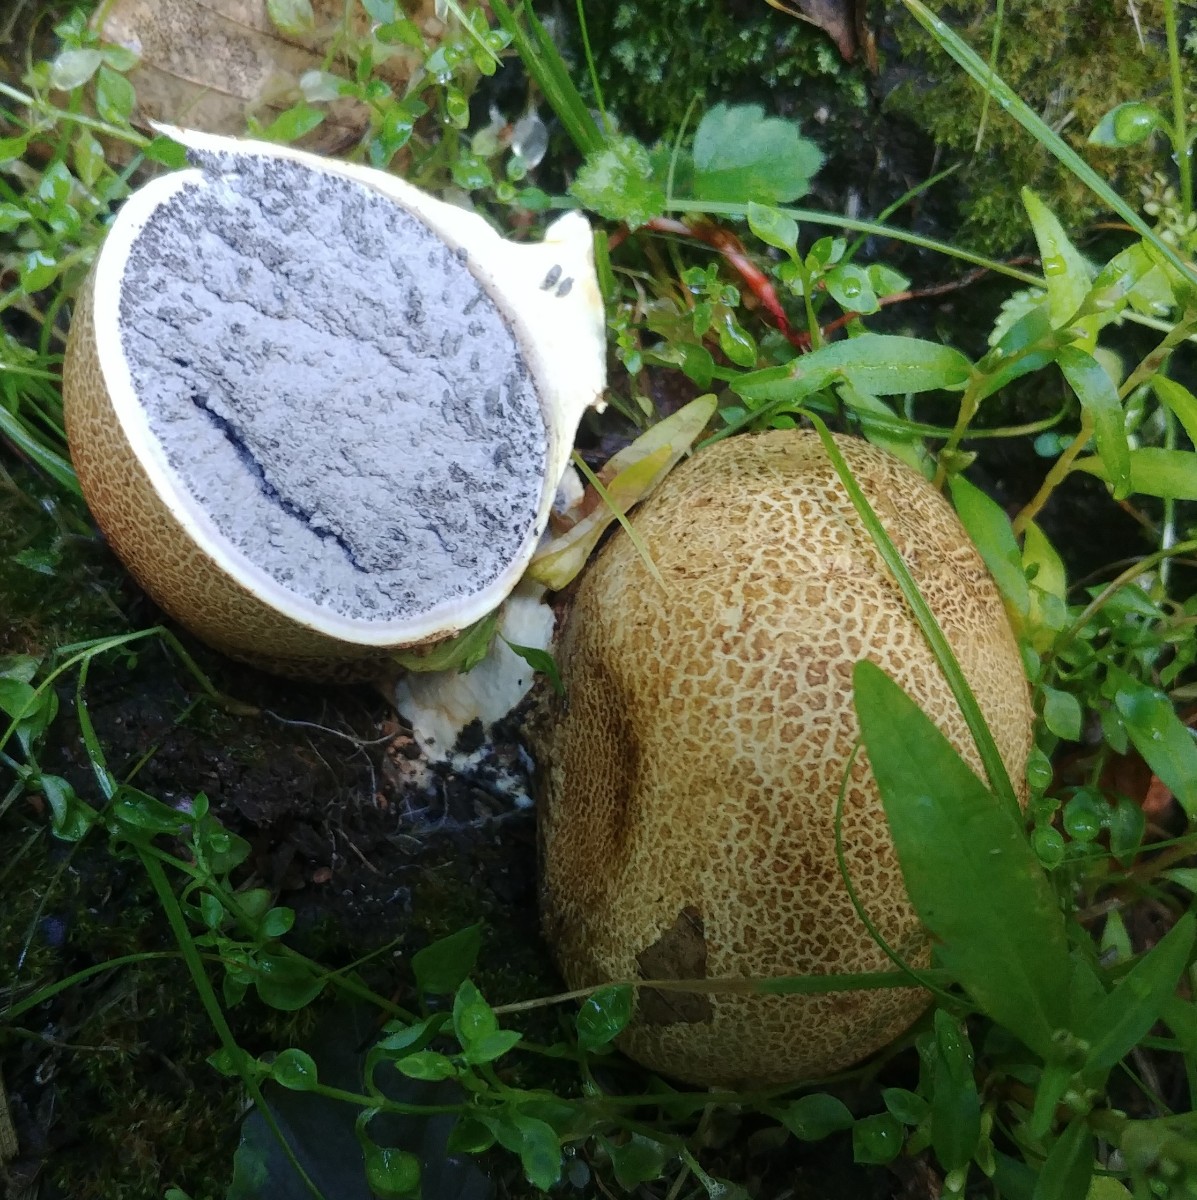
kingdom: Fungi
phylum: Basidiomycota
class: Agaricomycetes
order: Boletales
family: Sclerodermataceae
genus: Scleroderma
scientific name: Scleroderma citrinum
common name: almindelig bruskbold
